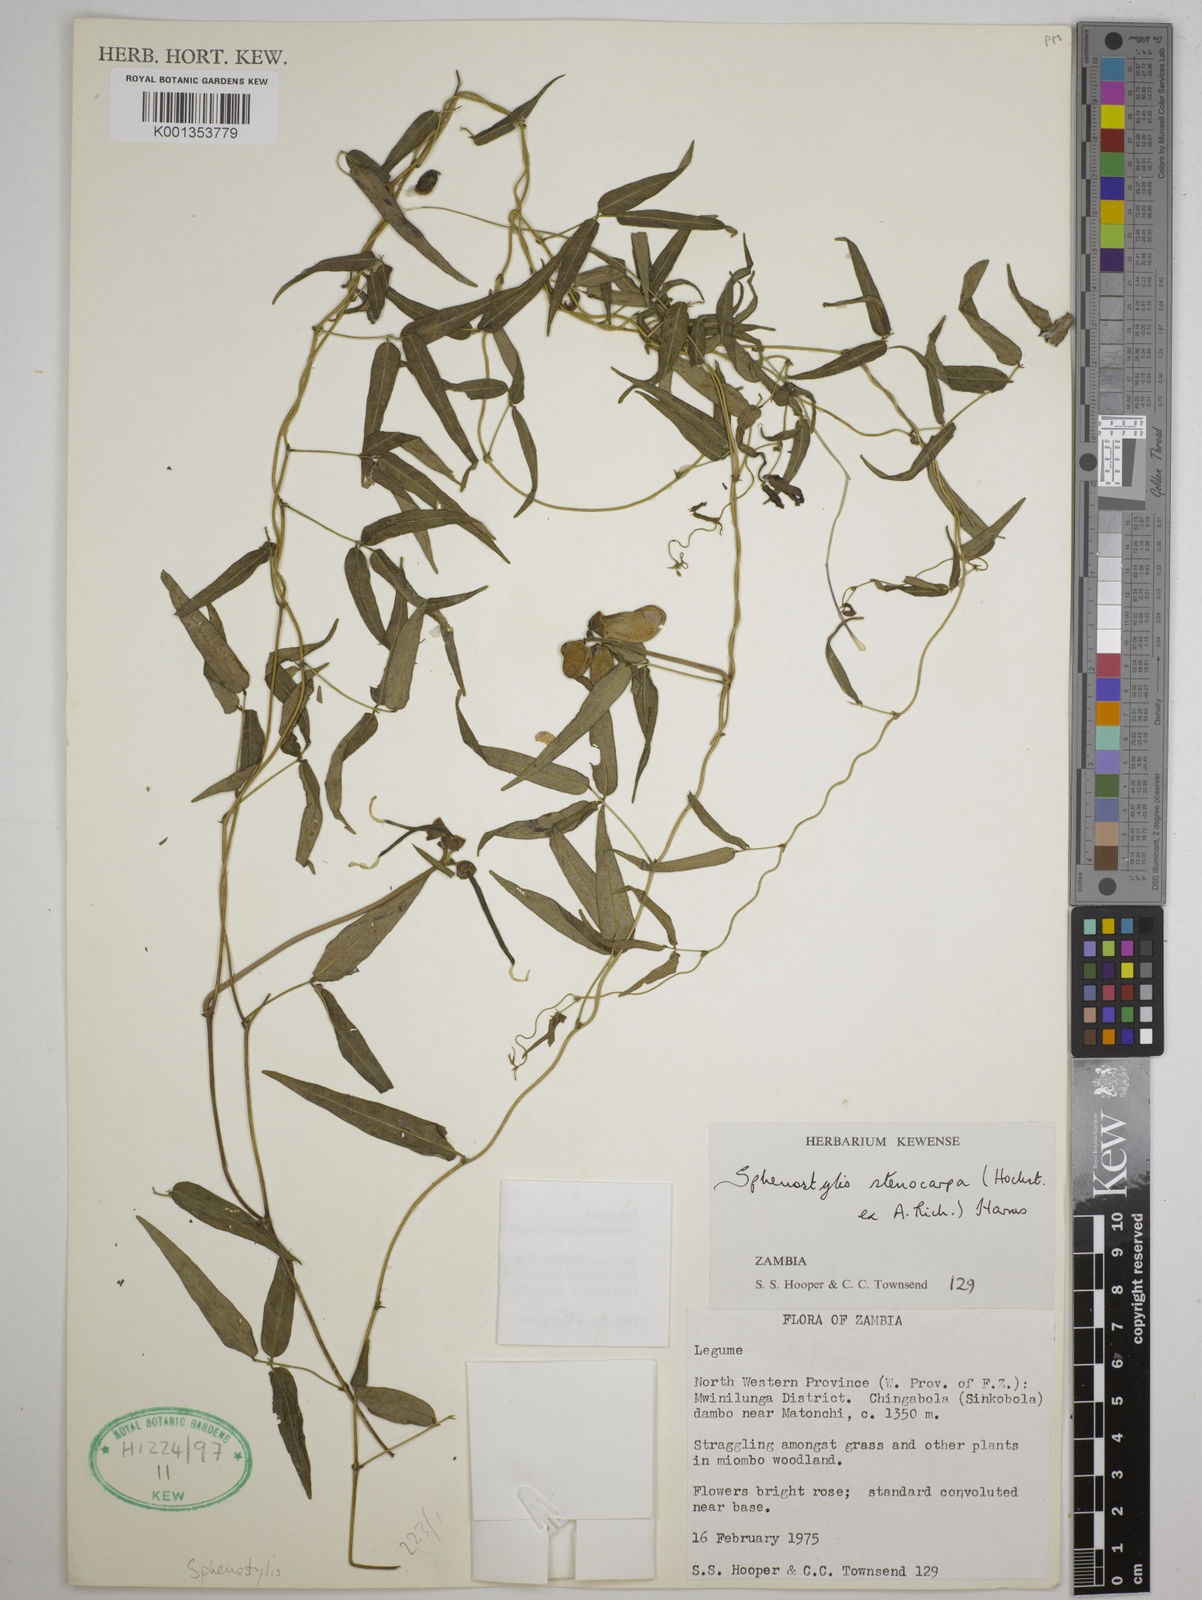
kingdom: Plantae
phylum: Tracheophyta
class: Magnoliopsida
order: Fabales
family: Fabaceae
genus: Sphenostylis
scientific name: Sphenostylis stenocarpa
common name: Yam-pea
